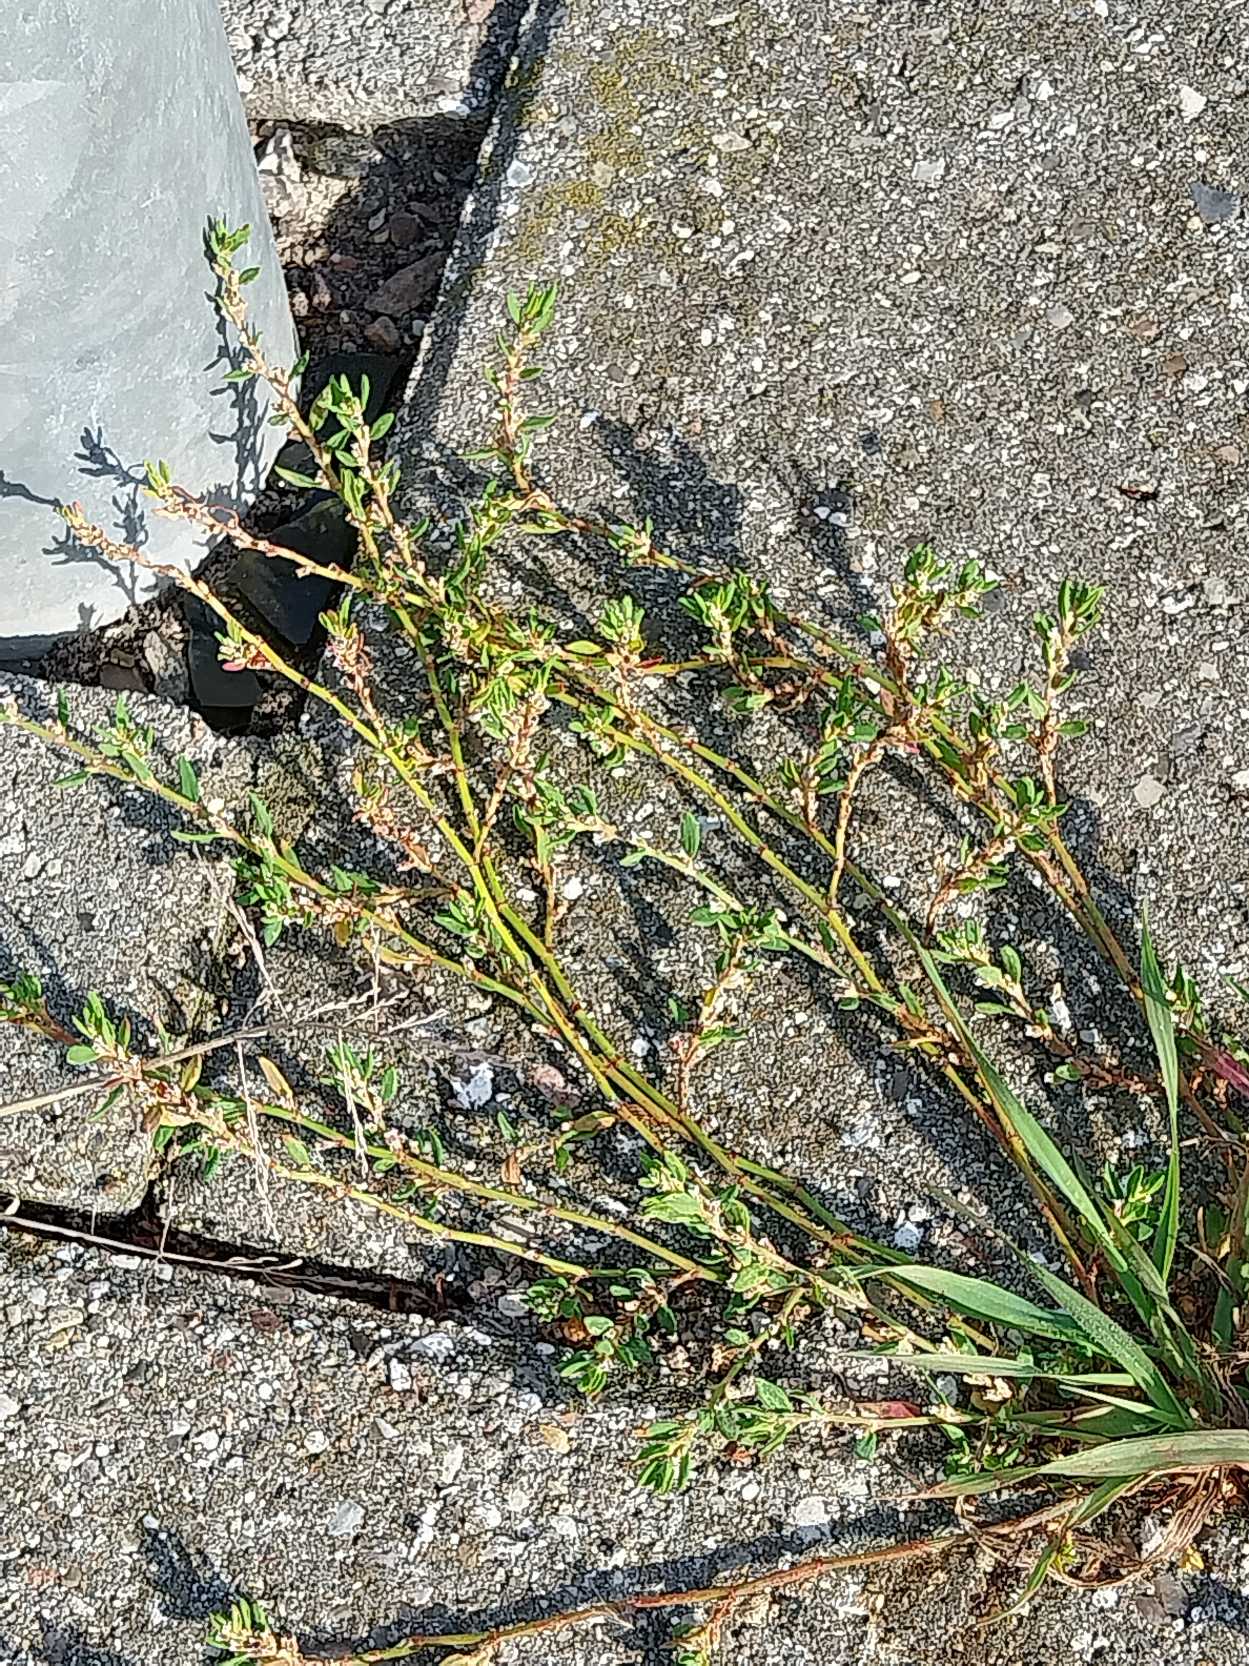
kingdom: Plantae
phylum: Tracheophyta
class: Magnoliopsida
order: Caryophyllales
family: Polygonaceae
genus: Polygonum
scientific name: Polygonum arenastrum
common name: Liggende vej-pileurt
